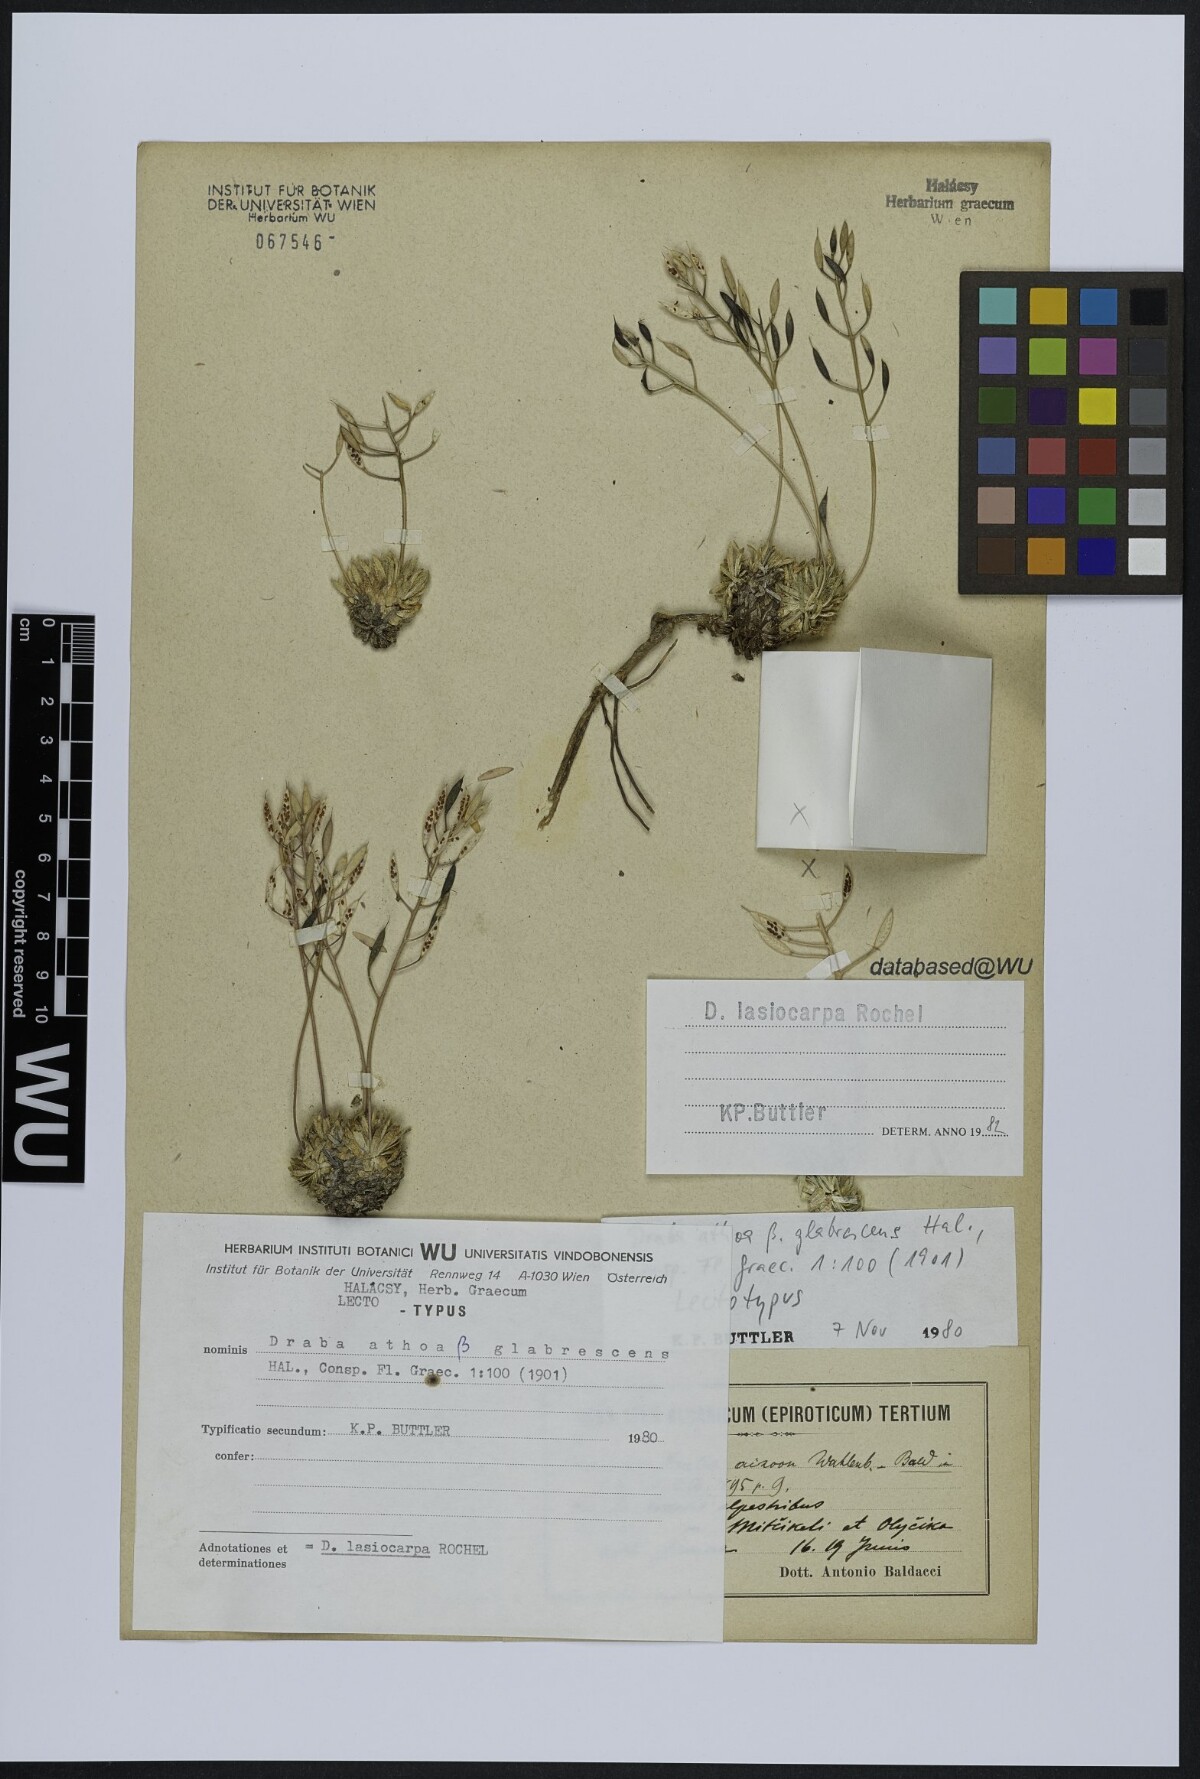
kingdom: Plantae
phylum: Tracheophyta
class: Magnoliopsida
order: Brassicales
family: Brassicaceae
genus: Draba
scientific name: Draba lasiocarpa
